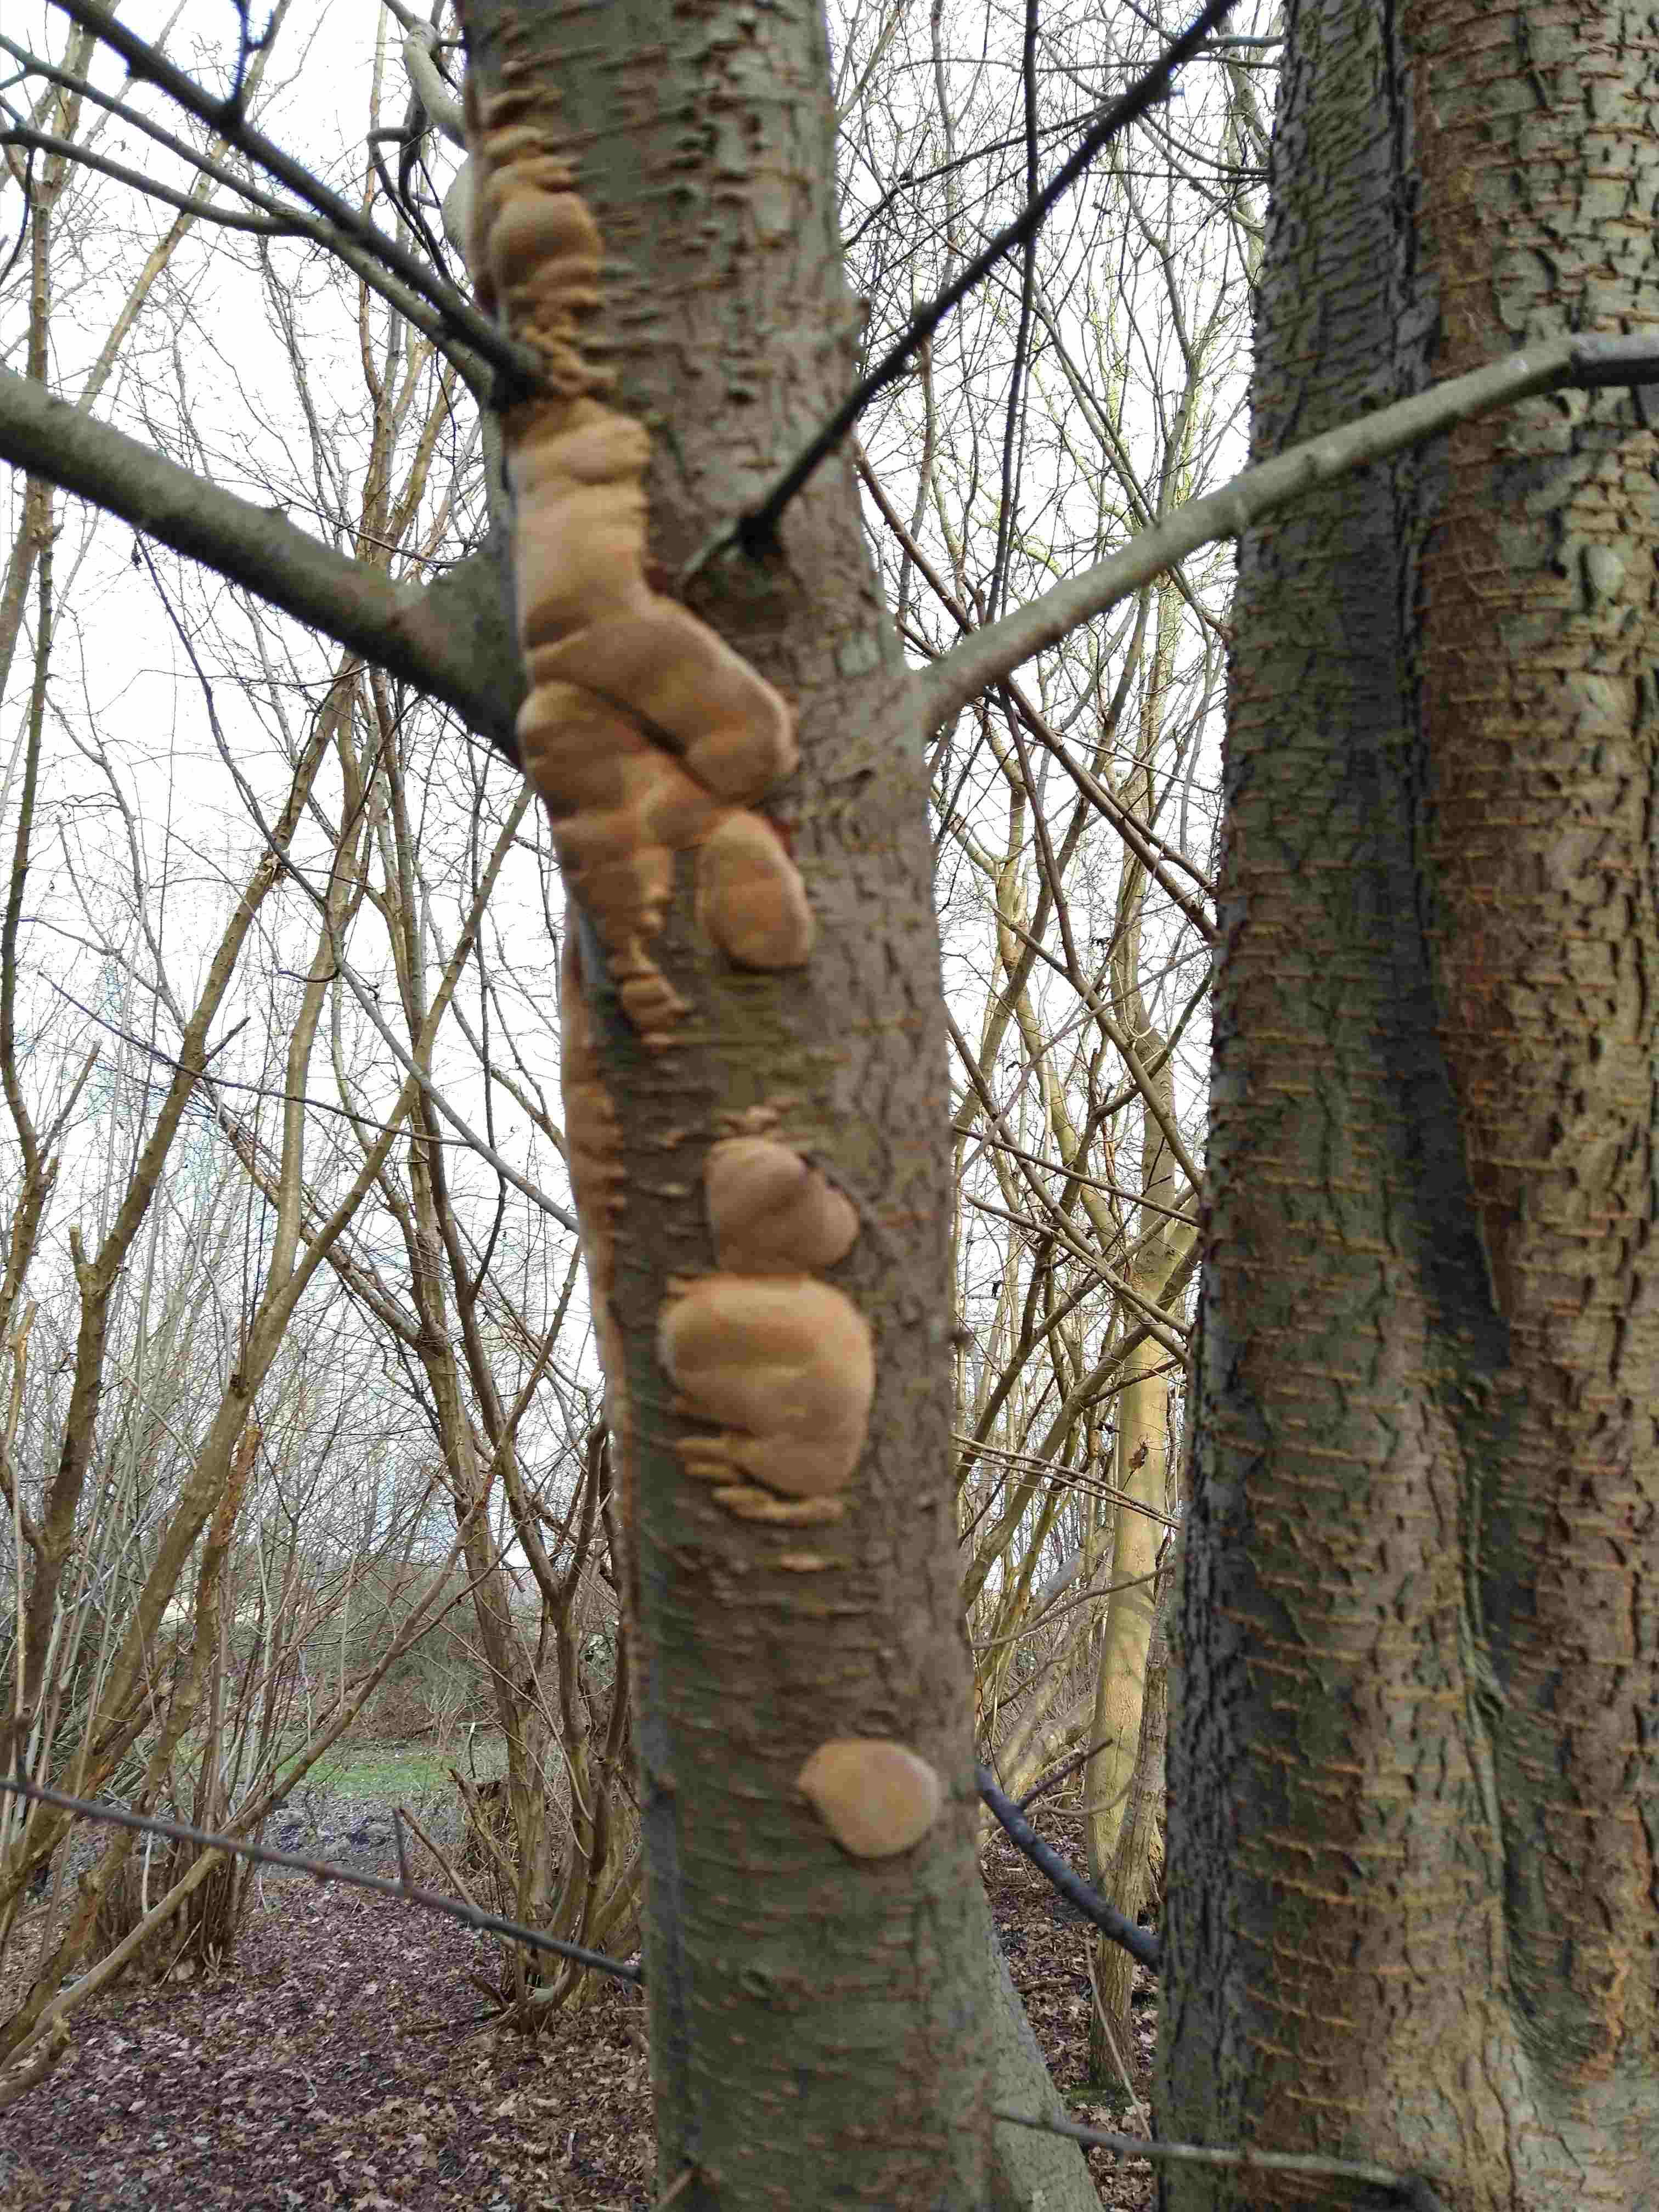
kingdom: Fungi
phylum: Basidiomycota
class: Agaricomycetes
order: Hymenochaetales
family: Hymenochaetaceae
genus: Phellinus
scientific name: Phellinus pomaceus
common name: blomme-ildporesvamp
